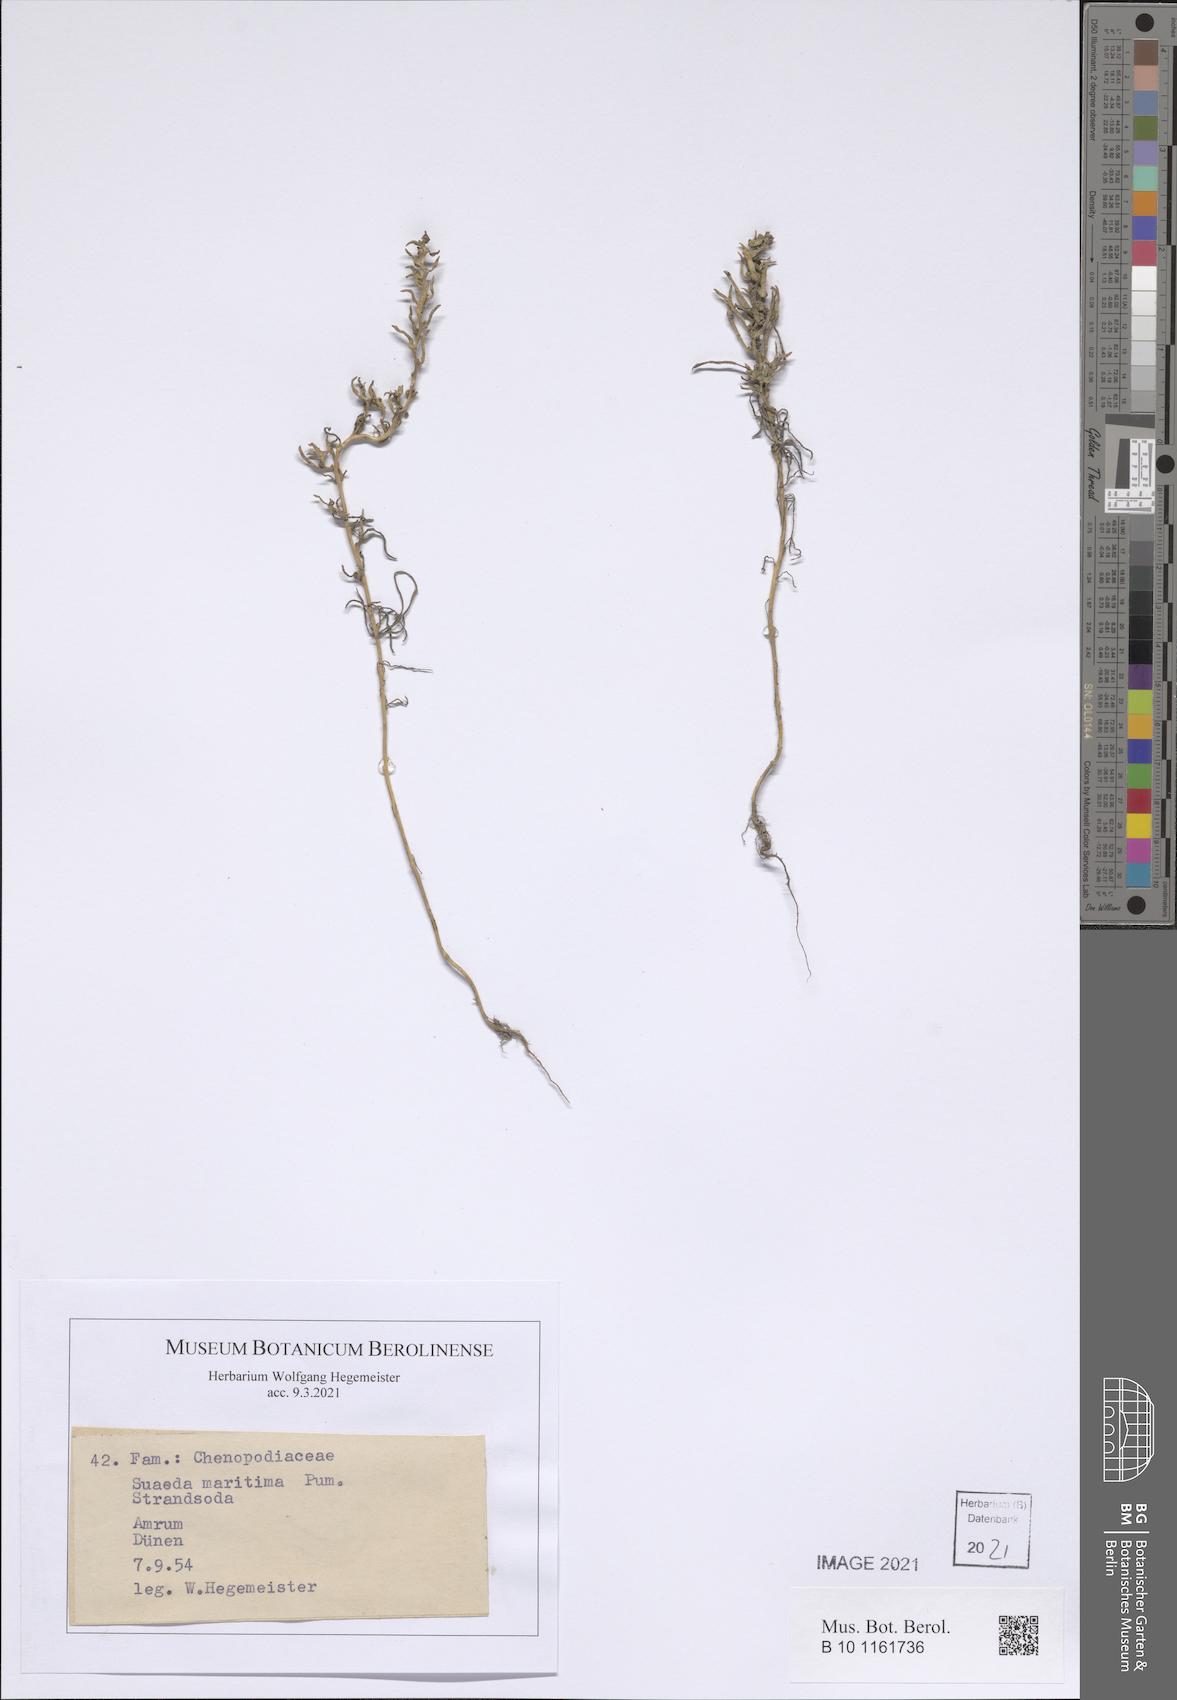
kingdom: Plantae
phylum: Tracheophyta
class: Magnoliopsida
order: Caryophyllales
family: Amaranthaceae
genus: Suaeda
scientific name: Suaeda maritima
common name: Annual sea-blite
